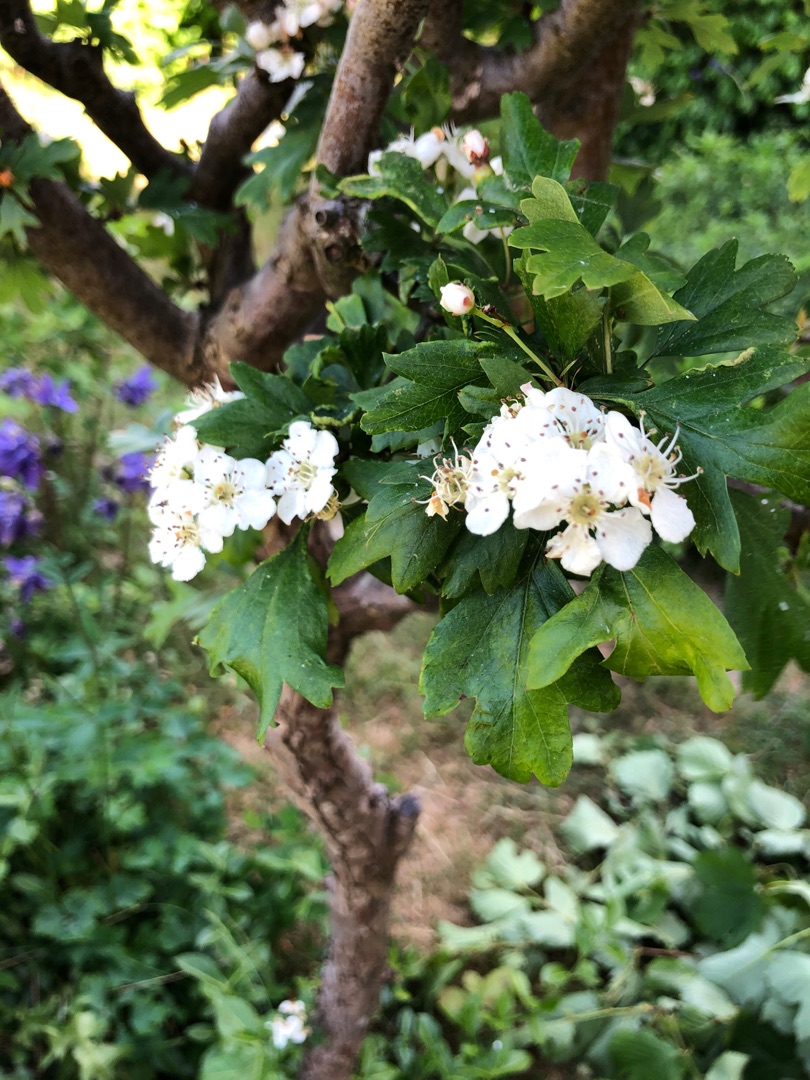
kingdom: Plantae
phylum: Tracheophyta
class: Magnoliopsida
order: Rosales
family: Rosaceae
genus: Crataegus
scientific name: Crataegus monogyna
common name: Engriflet hvidtjørn
